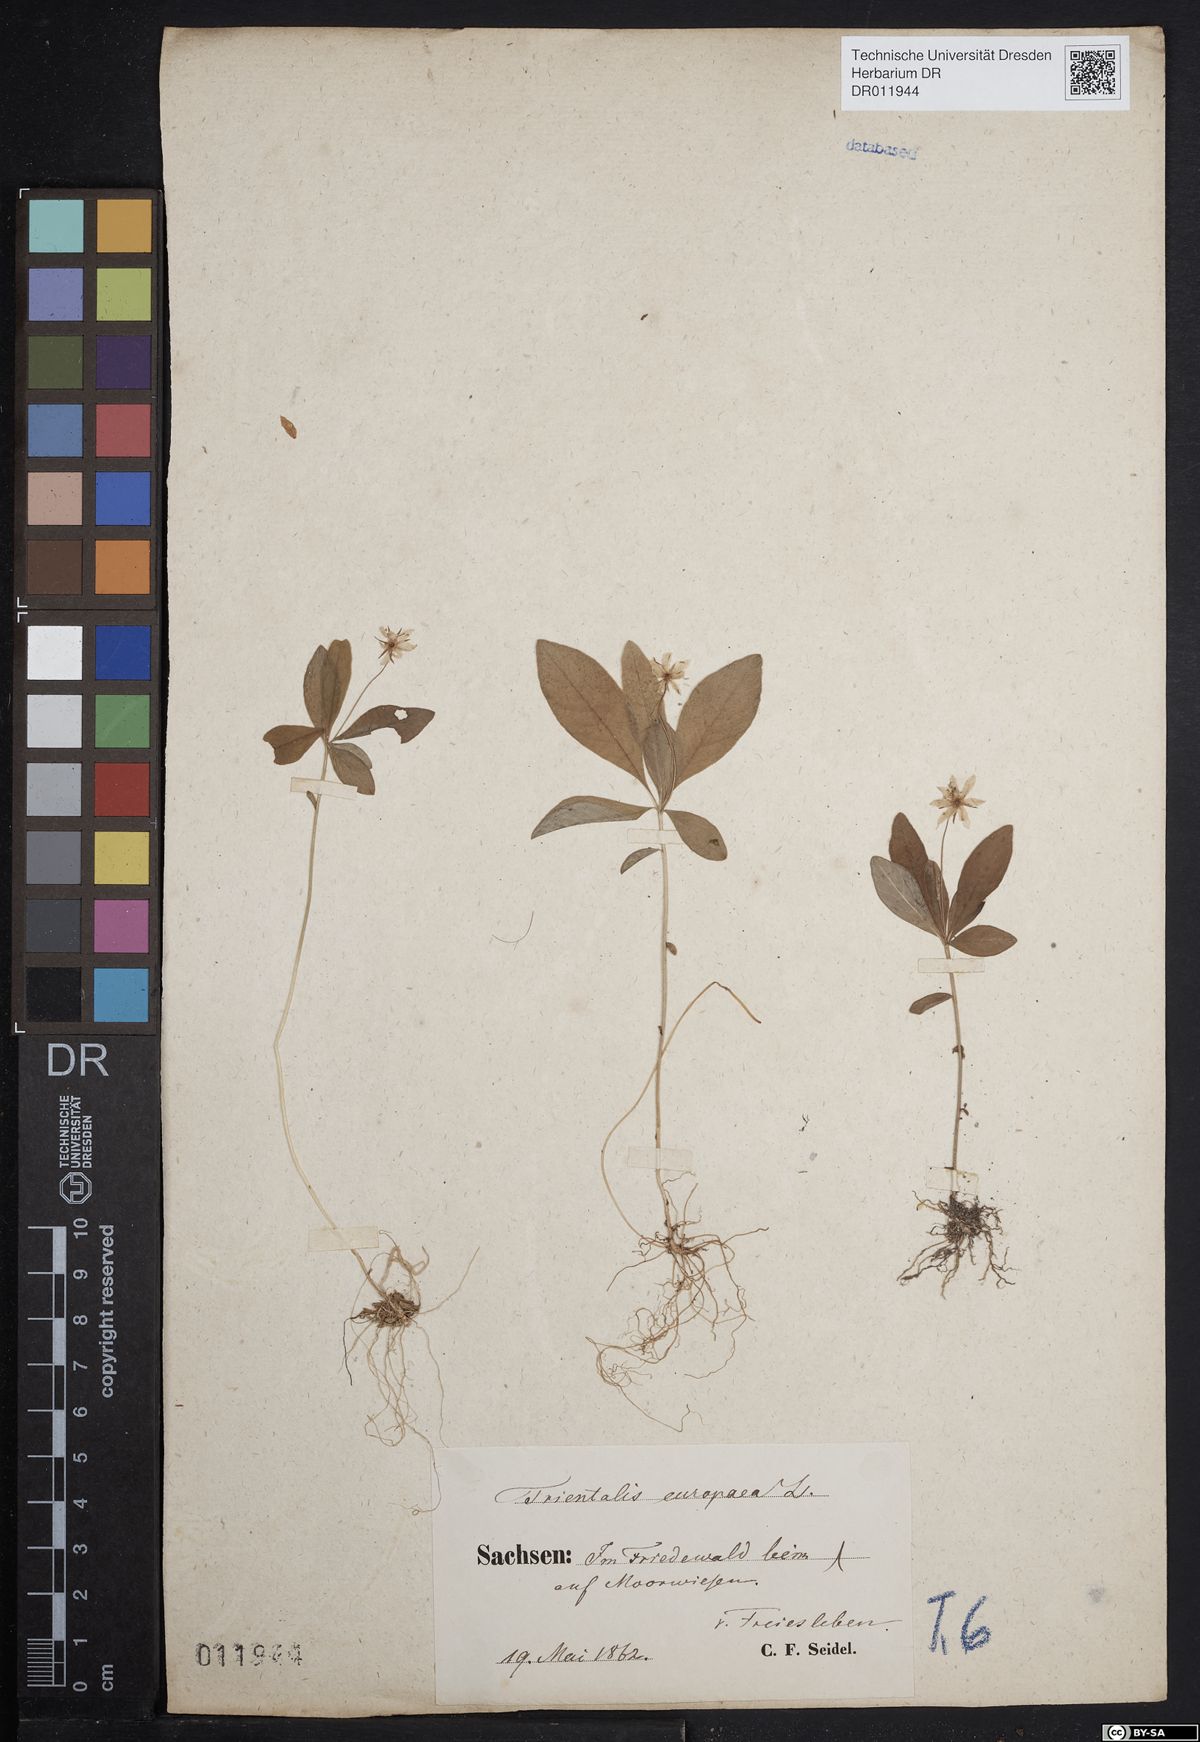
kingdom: Plantae
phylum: Tracheophyta
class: Magnoliopsida
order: Ericales
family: Primulaceae
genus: Lysimachia
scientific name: Lysimachia europaea
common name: Arctic starflower
